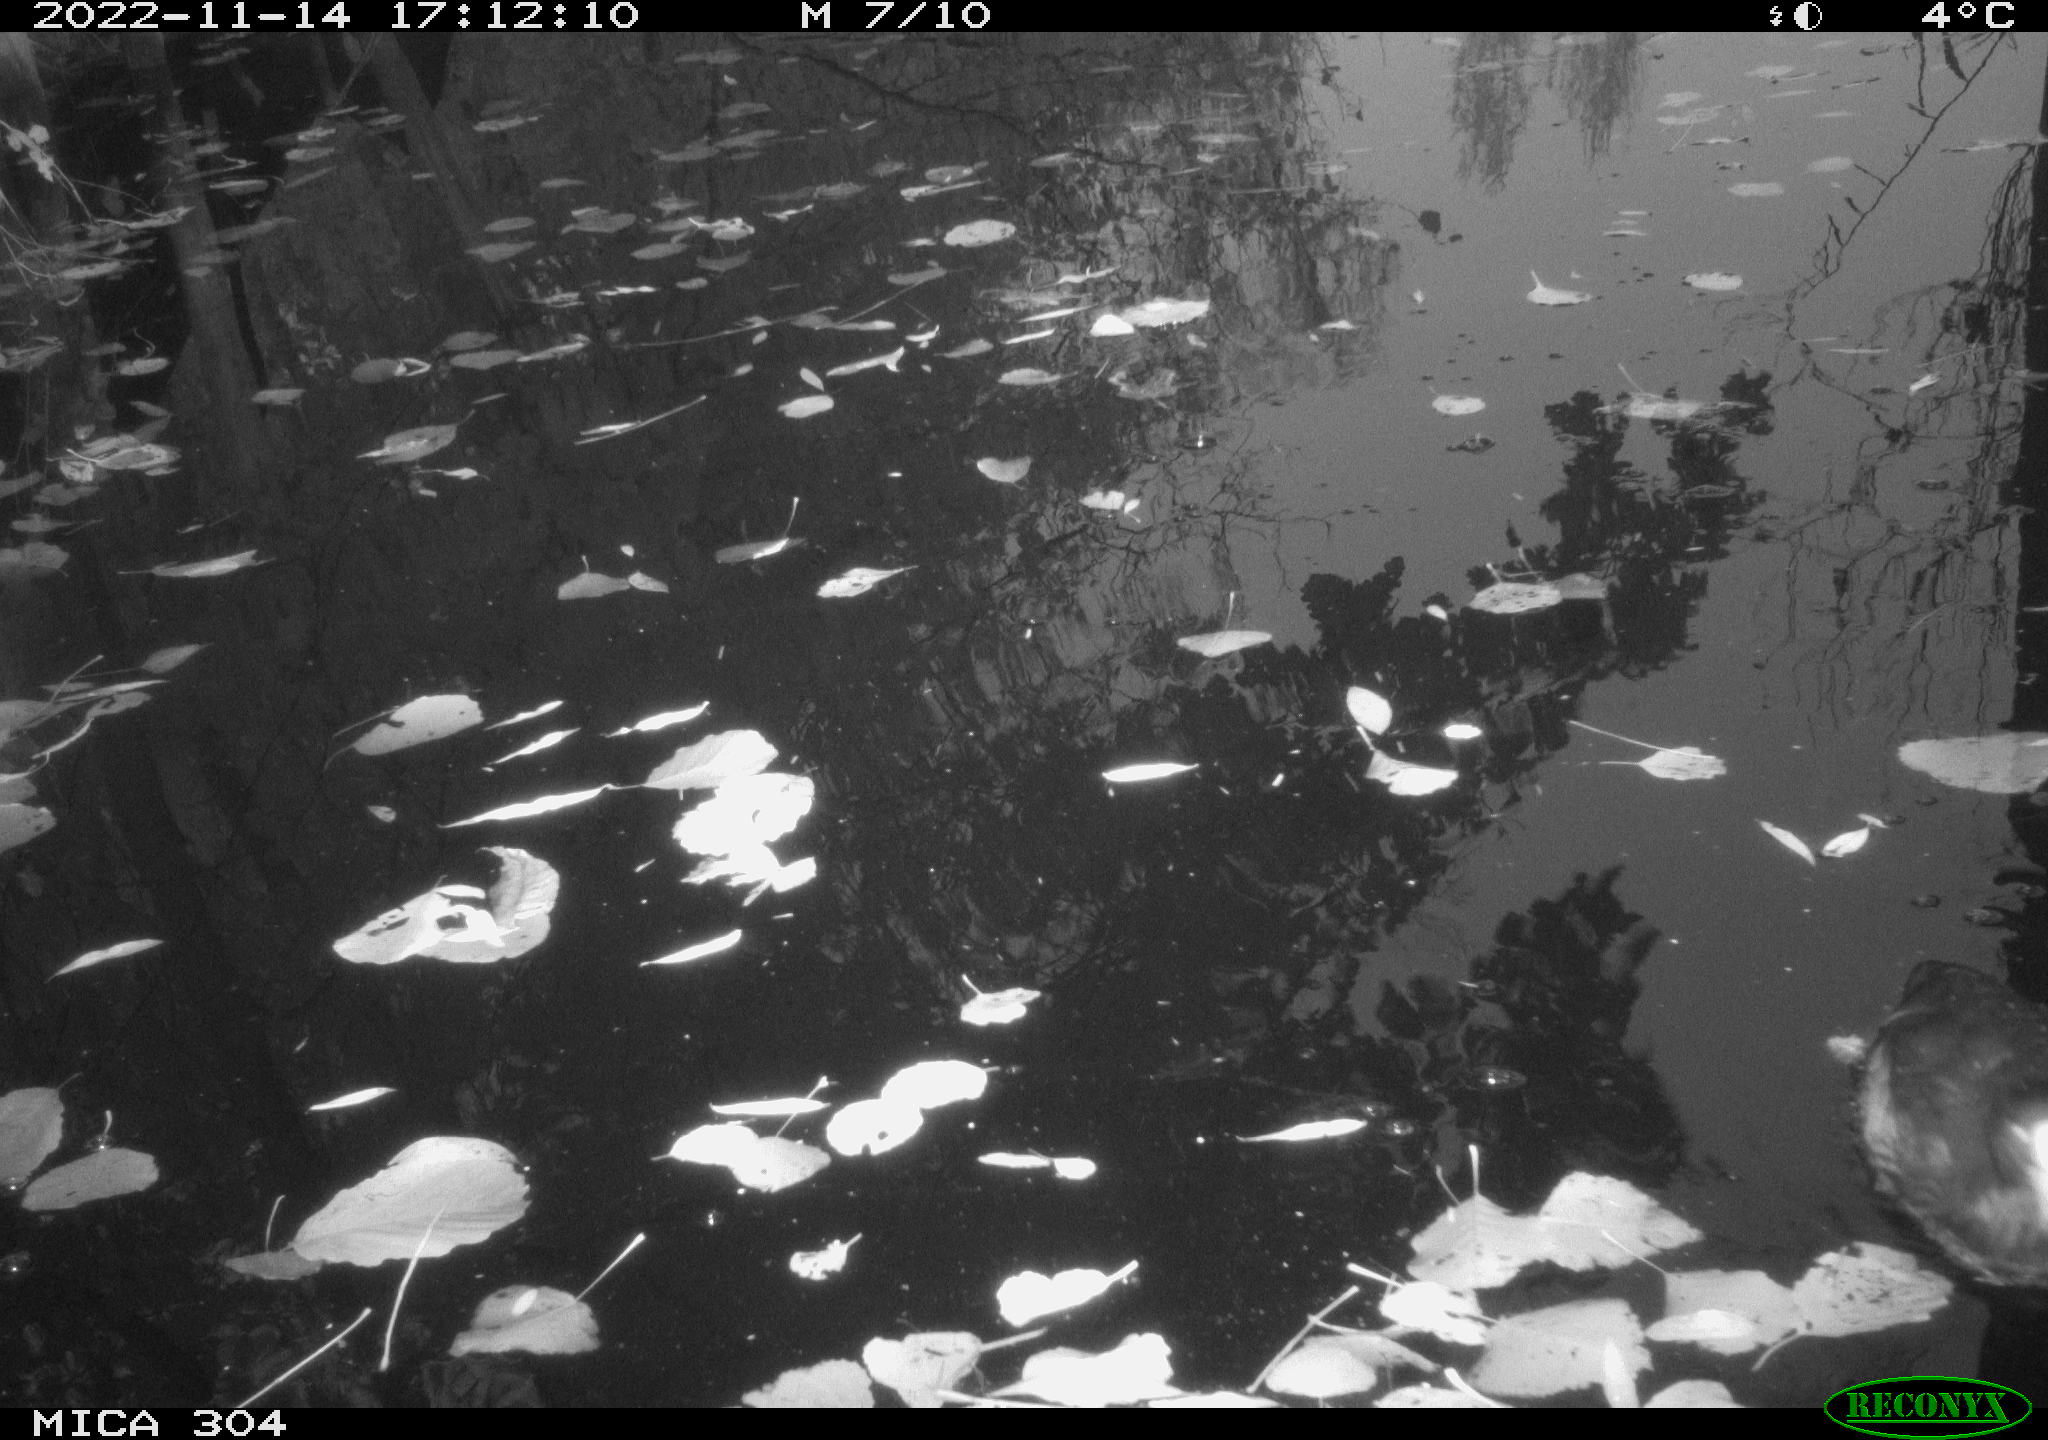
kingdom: Animalia
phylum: Chordata
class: Aves
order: Anseriformes
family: Anatidae
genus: Anas
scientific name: Anas
